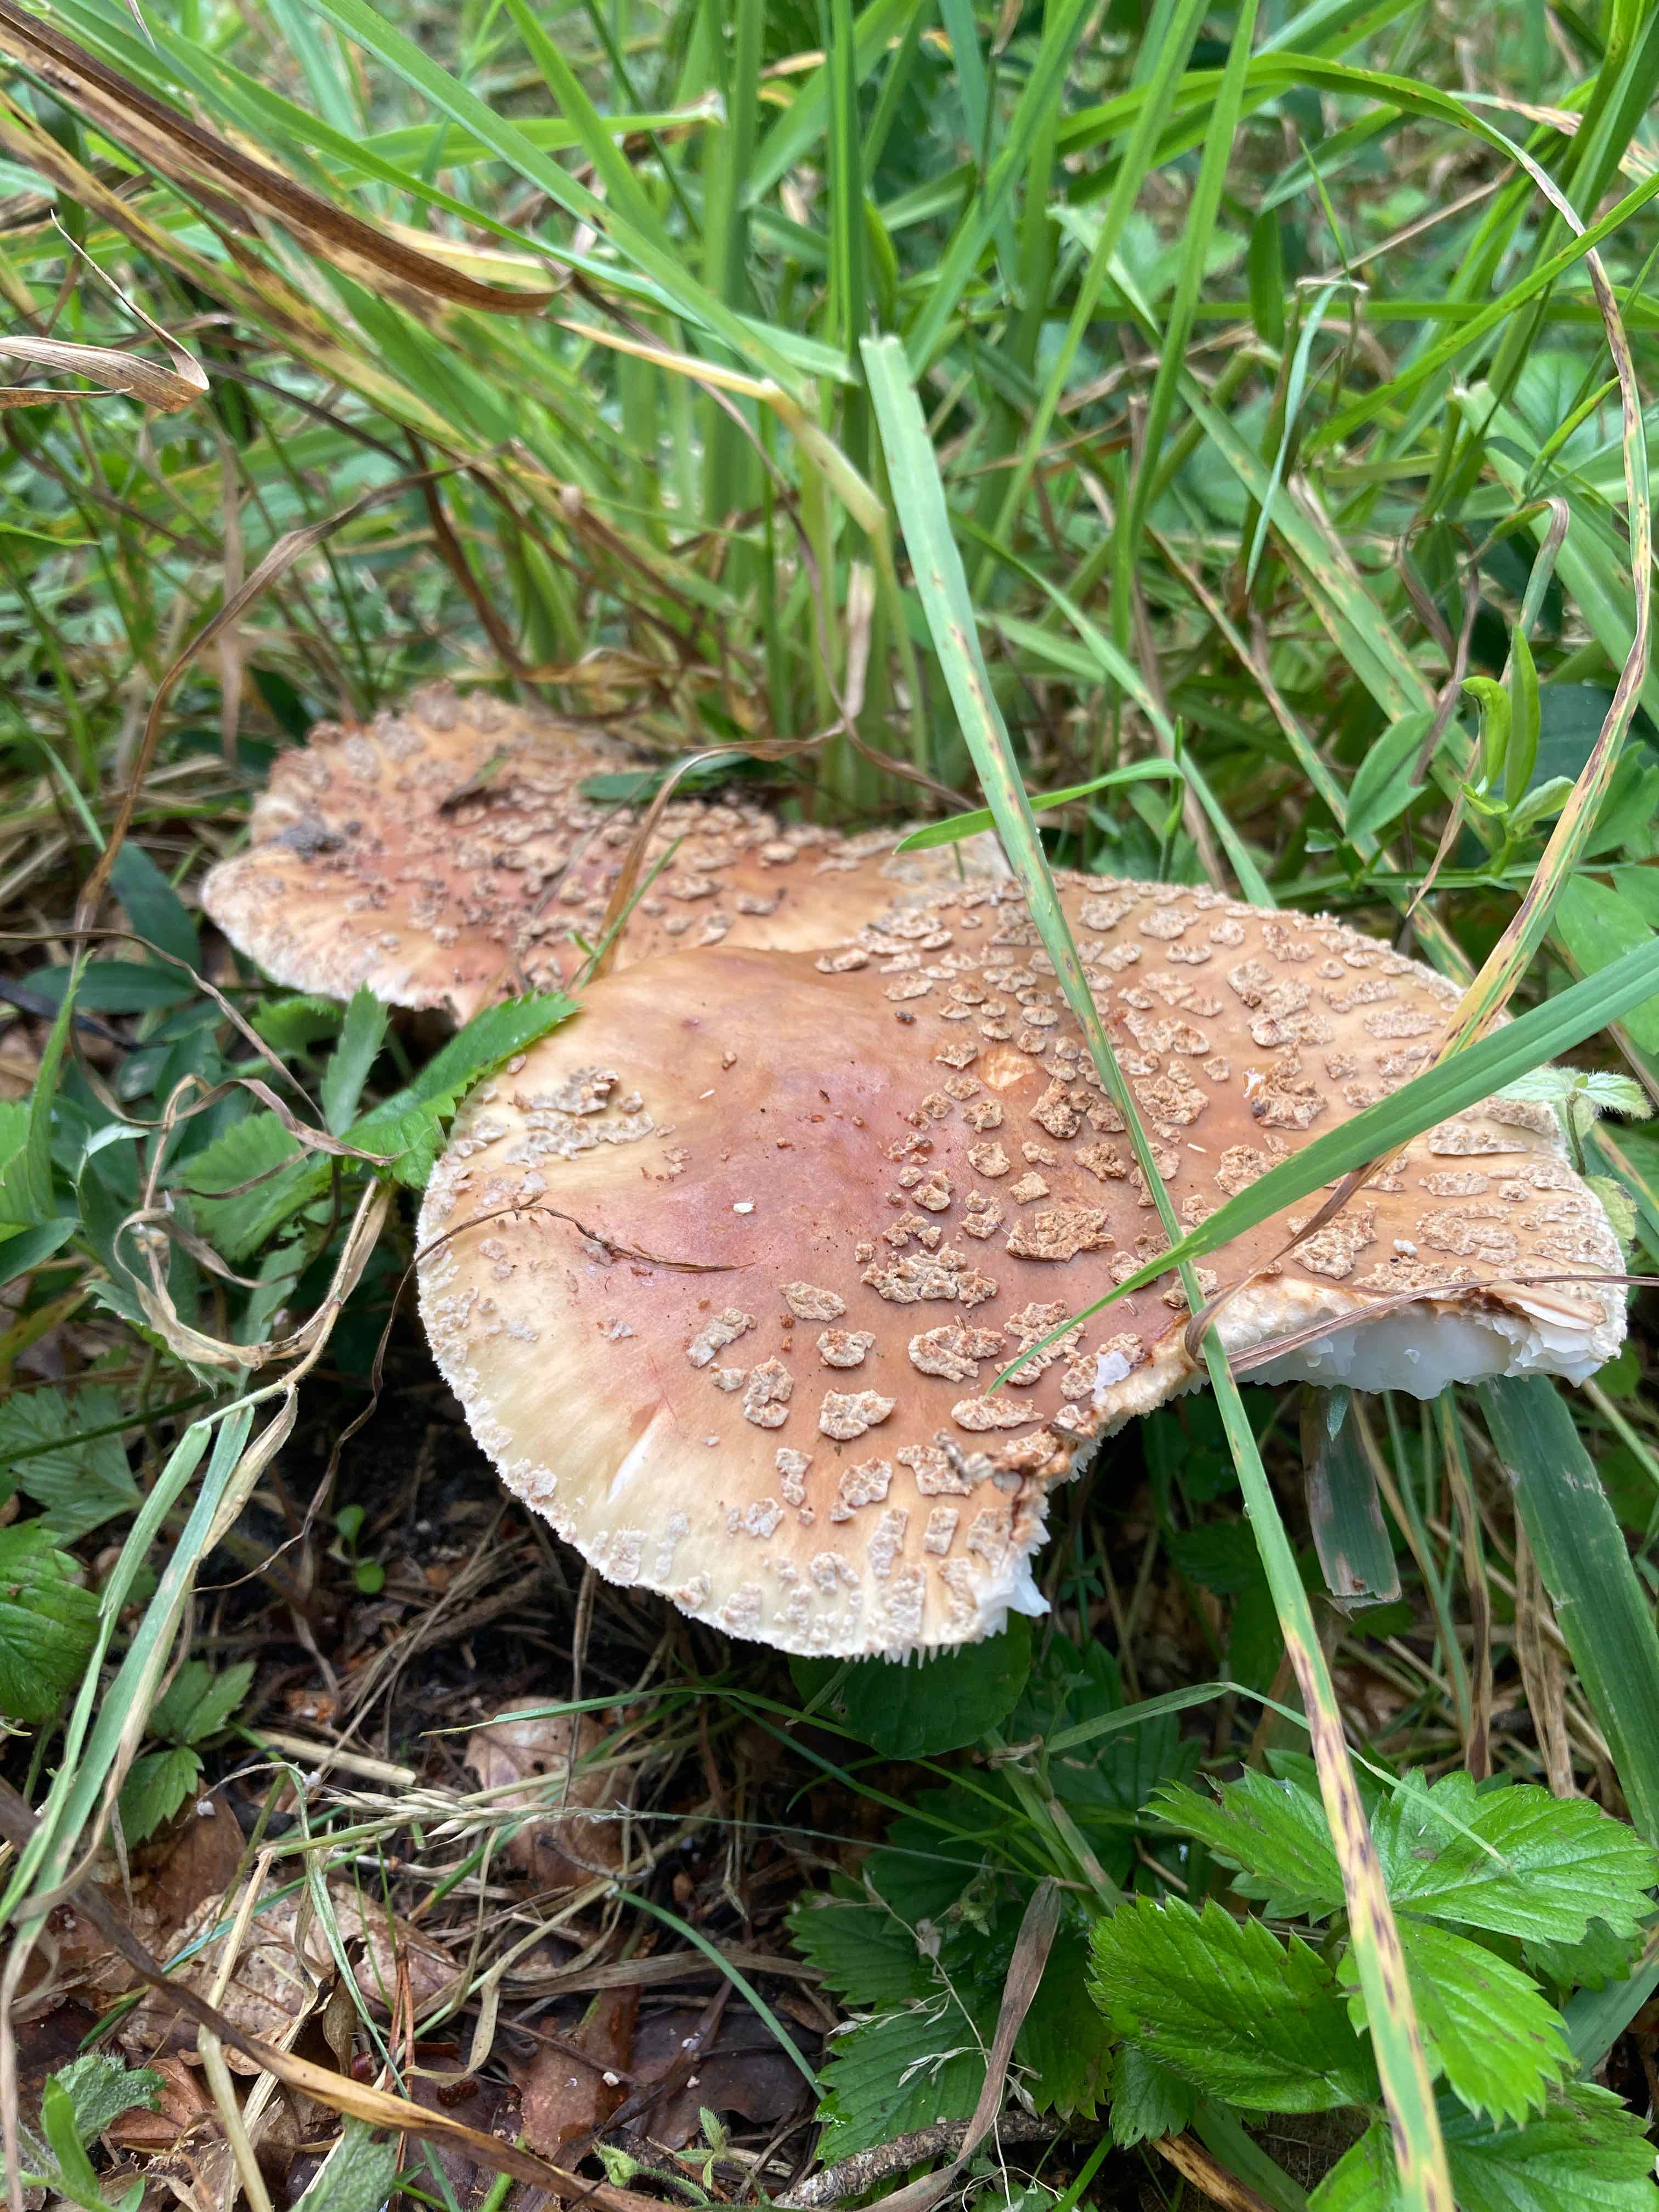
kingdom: Fungi
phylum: Basidiomycota
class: Agaricomycetes
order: Agaricales
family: Amanitaceae
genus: Amanita
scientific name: Amanita rubescens
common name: rødmende fluesvamp
